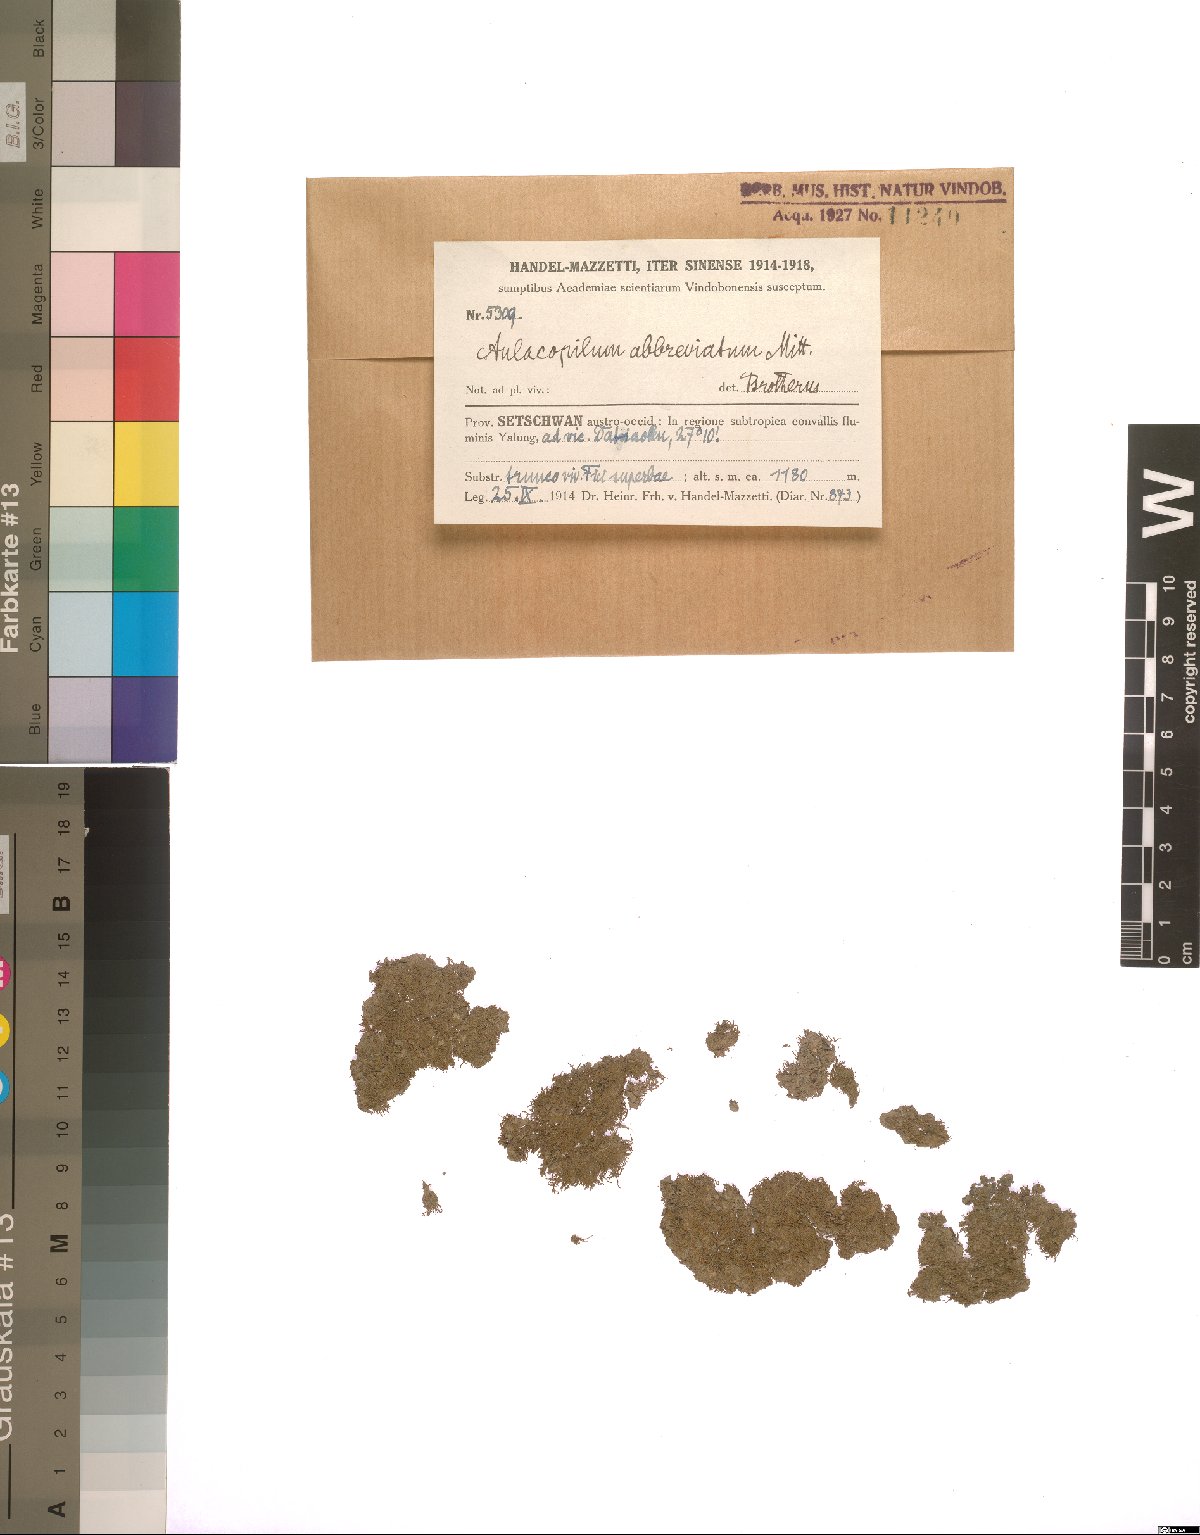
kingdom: Plantae
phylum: Bryophyta
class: Bryopsida
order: Dicranales
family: Erpodiaceae
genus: Aulacopilum
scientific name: Aulacopilum glaucum
